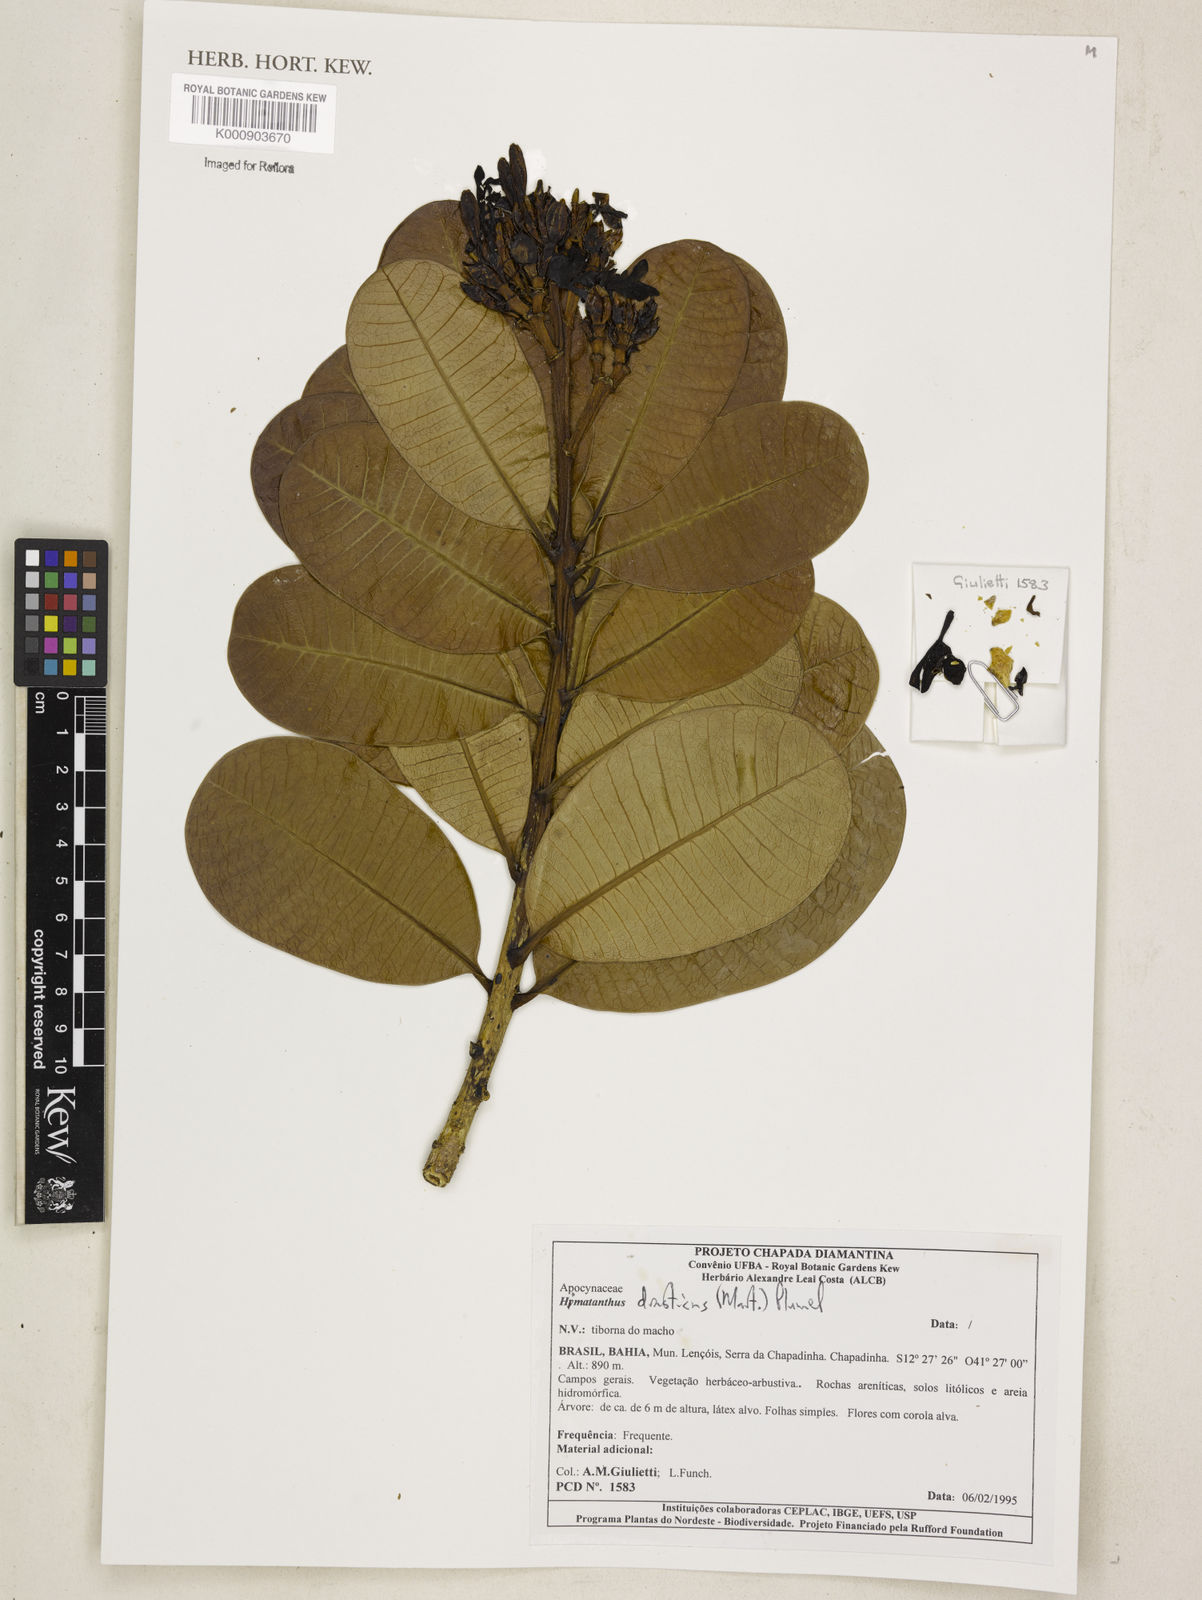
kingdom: Plantae
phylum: Tracheophyta
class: Magnoliopsida
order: Gentianales
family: Apocynaceae
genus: Himatanthus
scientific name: Himatanthus drasticus
